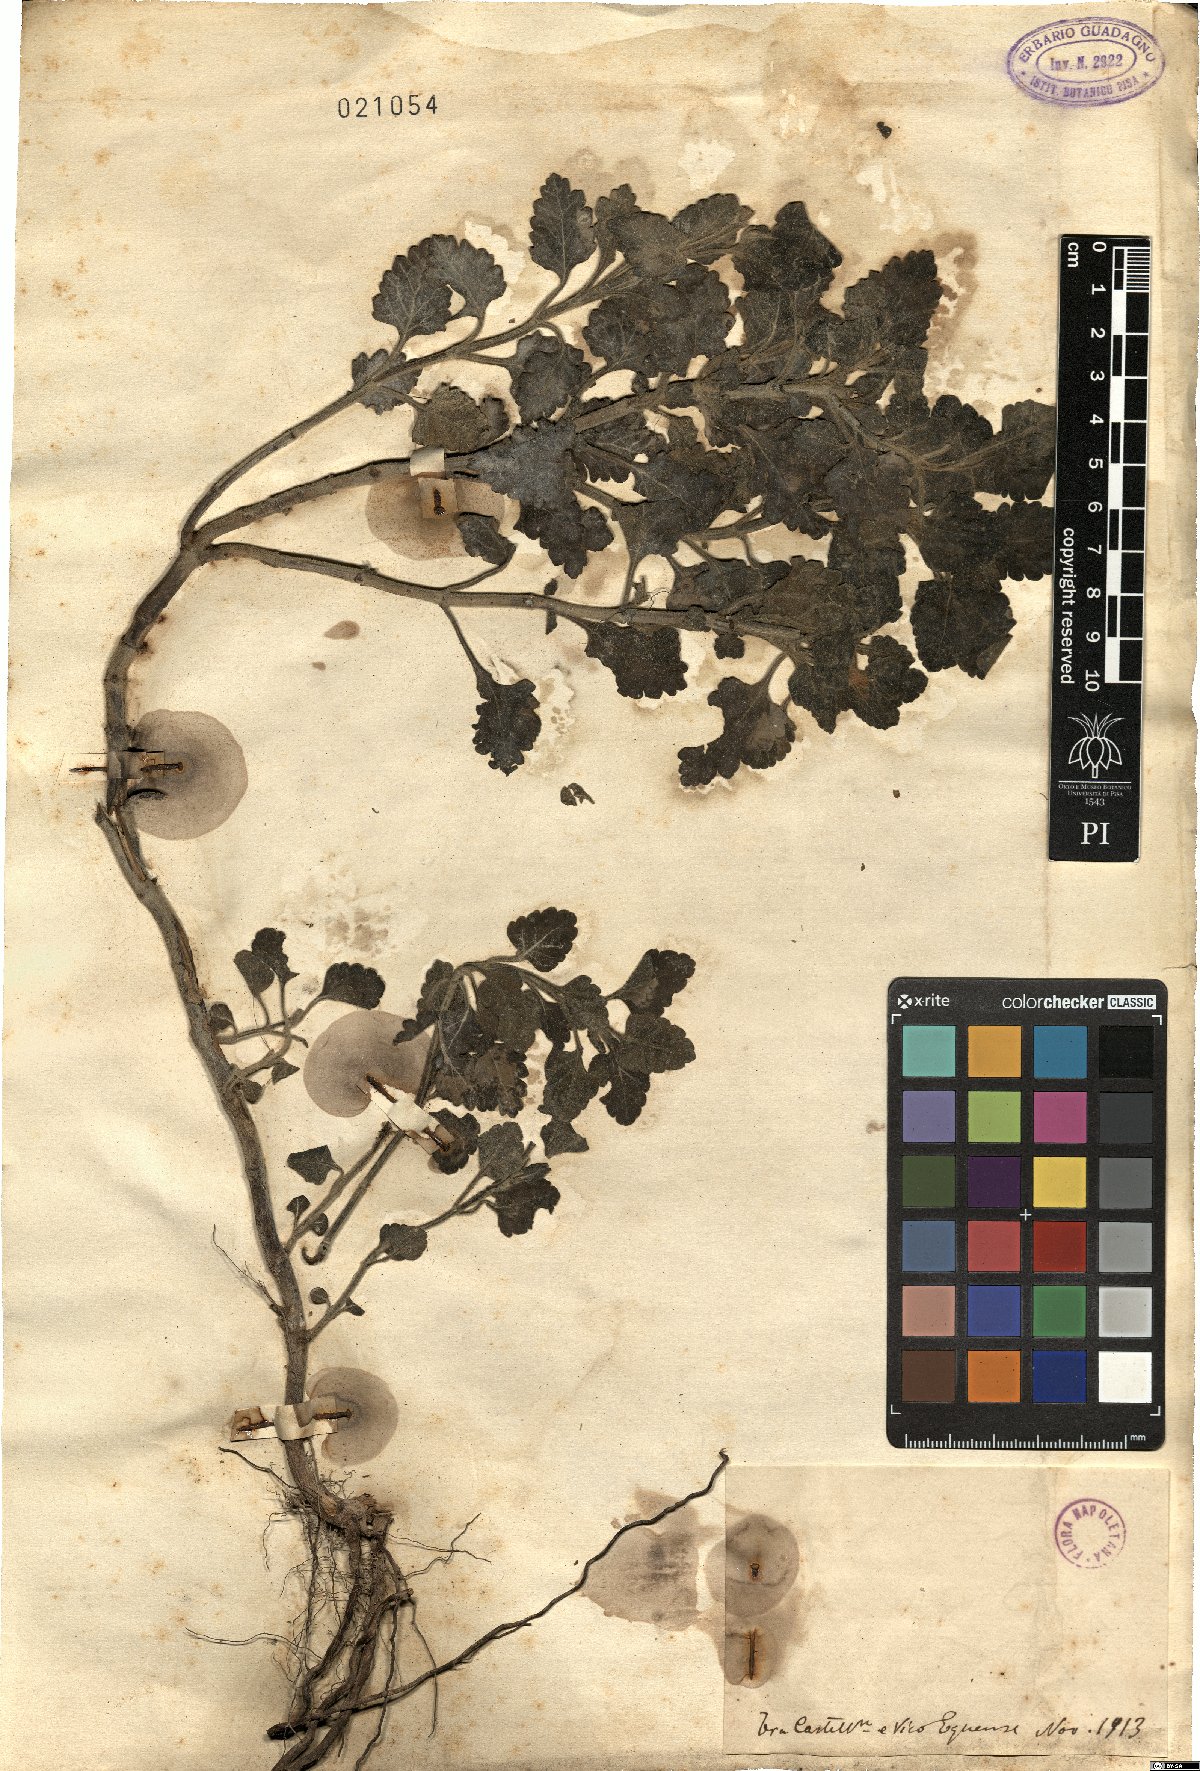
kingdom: Plantae
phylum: Tracheophyta
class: Magnoliopsida
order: Lamiales
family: Lamiaceae
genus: Teucrium
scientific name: Teucrium
